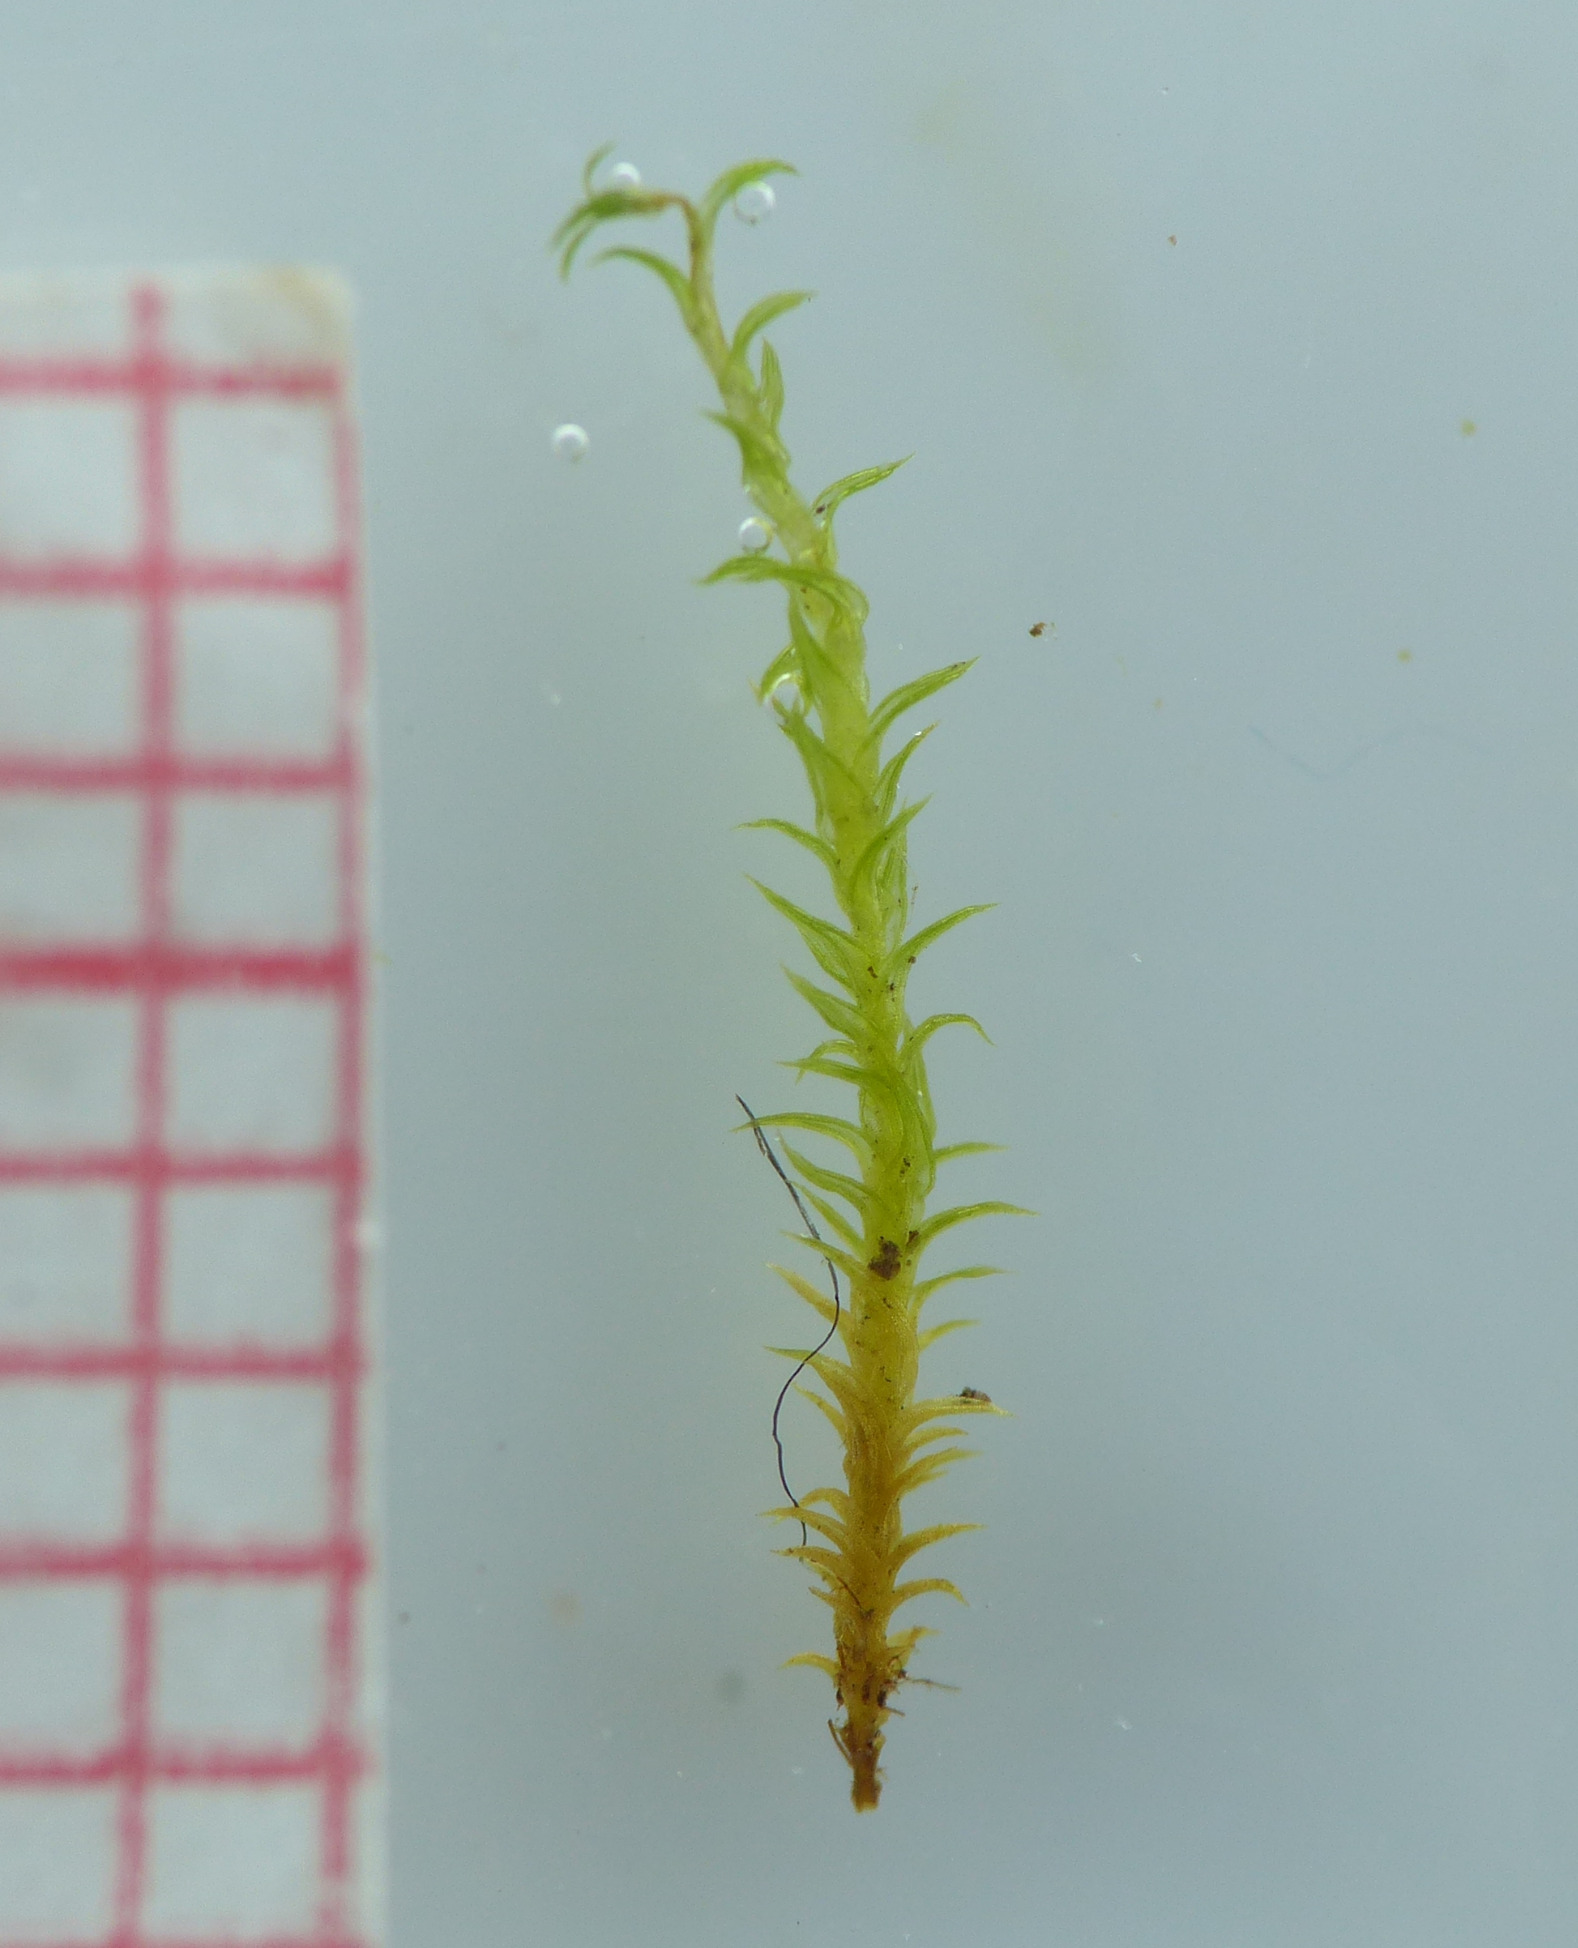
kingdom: Plantae
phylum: Bryophyta
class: Bryopsida
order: Pottiales
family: Pottiaceae
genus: Pseudocrossidium
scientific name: Pseudocrossidium hornschuchianum
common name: Spids rullerand
